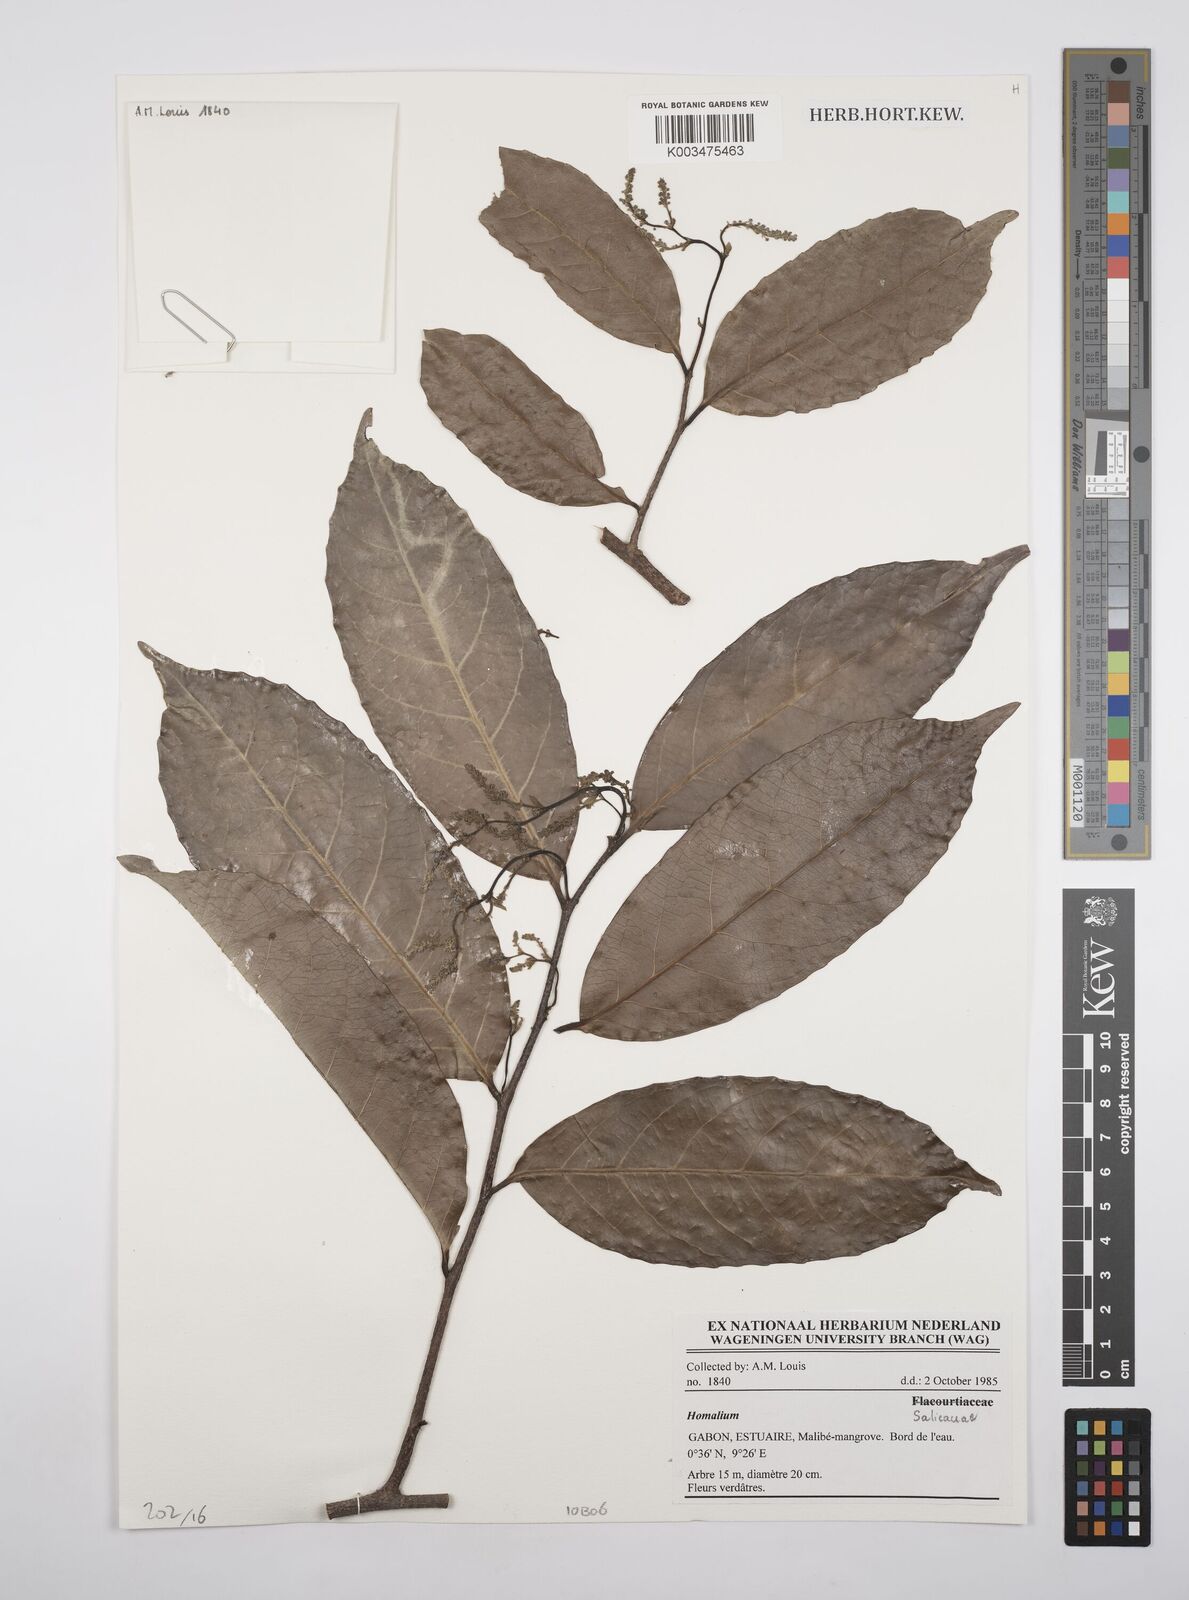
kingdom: Plantae
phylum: Tracheophyta
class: Magnoliopsida
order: Malpighiales
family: Salicaceae
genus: Homalium
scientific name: Homalium
